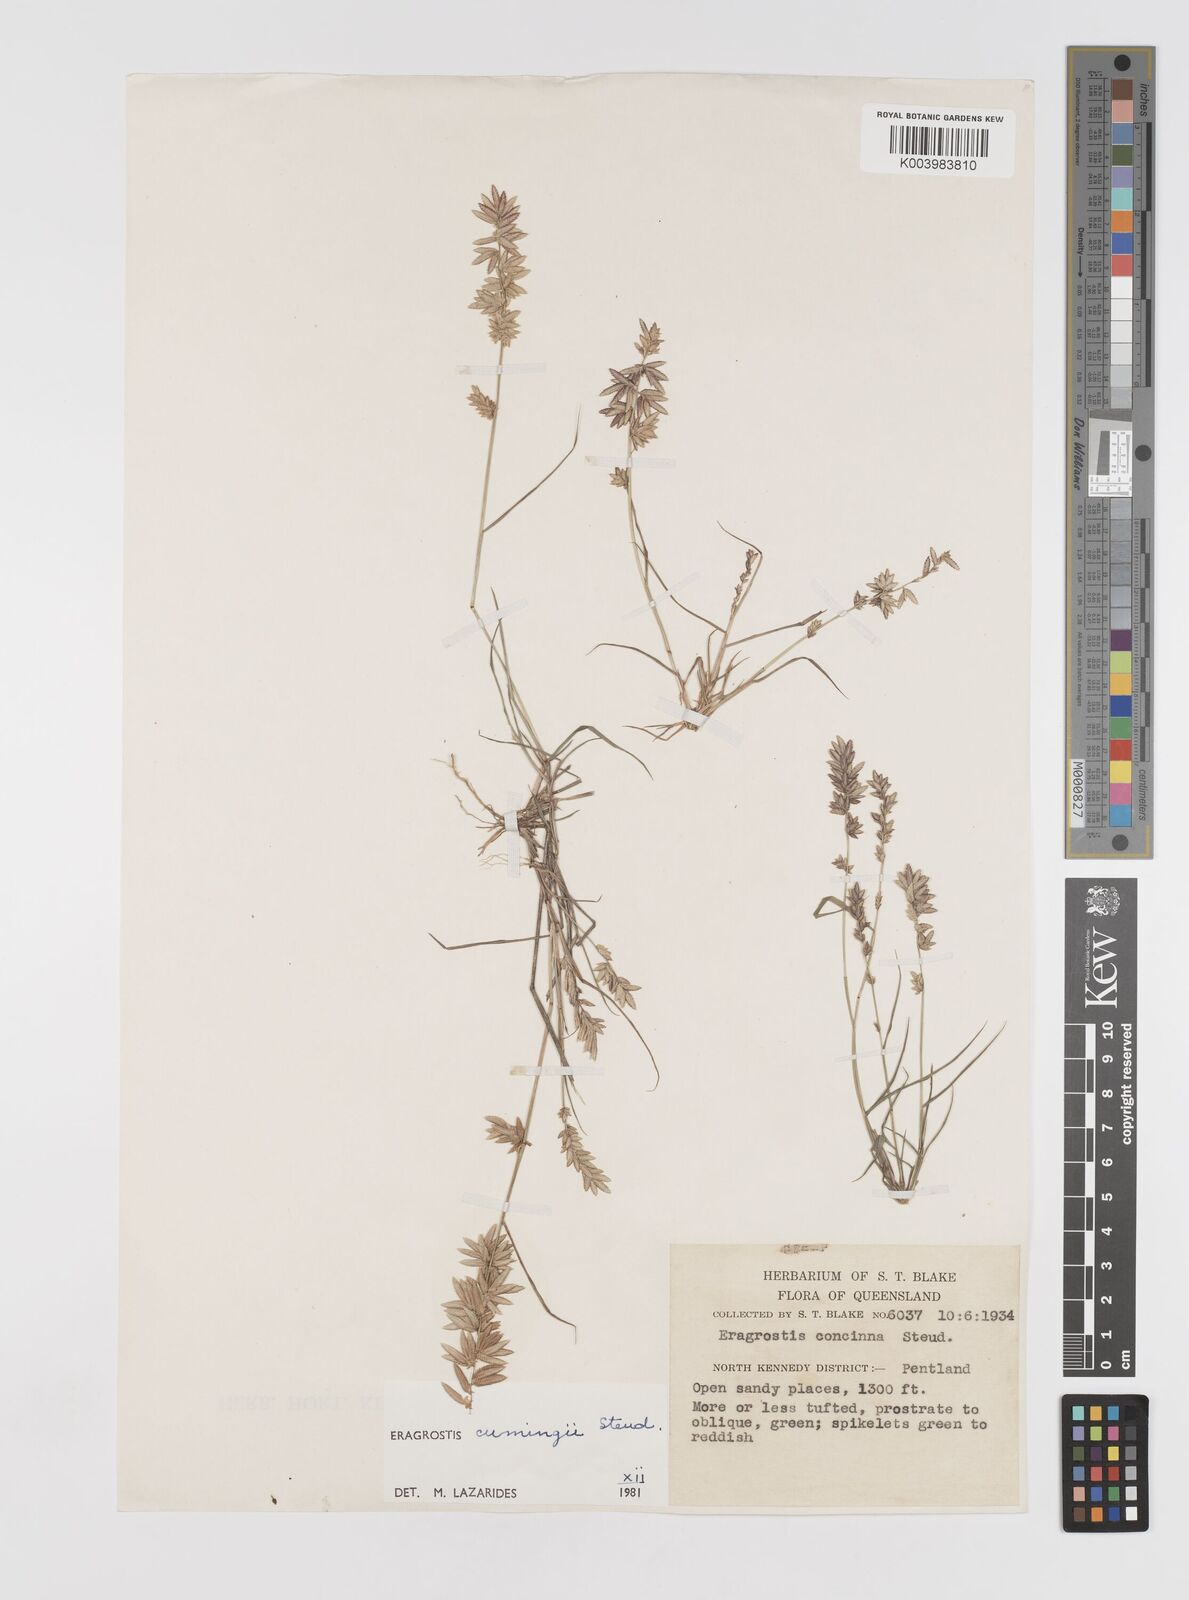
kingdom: Plantae
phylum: Tracheophyta
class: Liliopsida
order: Poales
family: Poaceae
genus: Eragrostis
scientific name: Eragrostis cumingii
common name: Cuming's lovegrass
